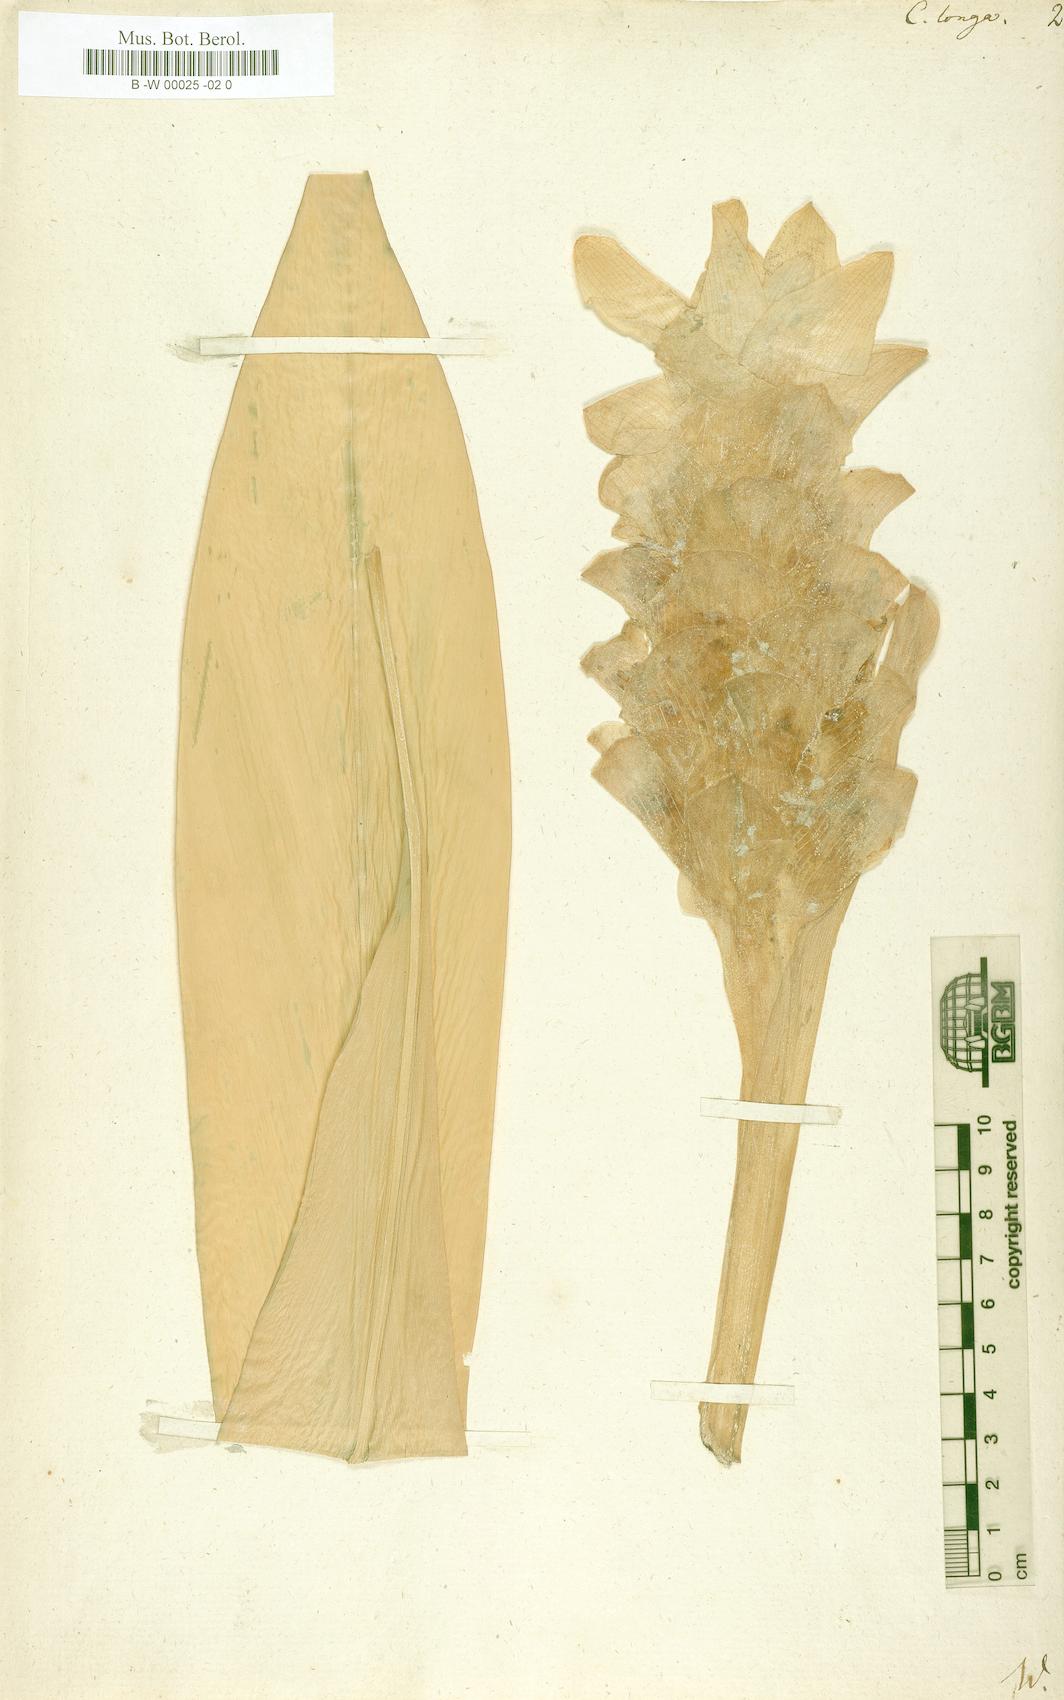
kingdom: Plantae
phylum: Tracheophyta
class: Liliopsida
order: Zingiberales
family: Zingiberaceae
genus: Curcuma
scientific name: Curcuma longa
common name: Turmeric
